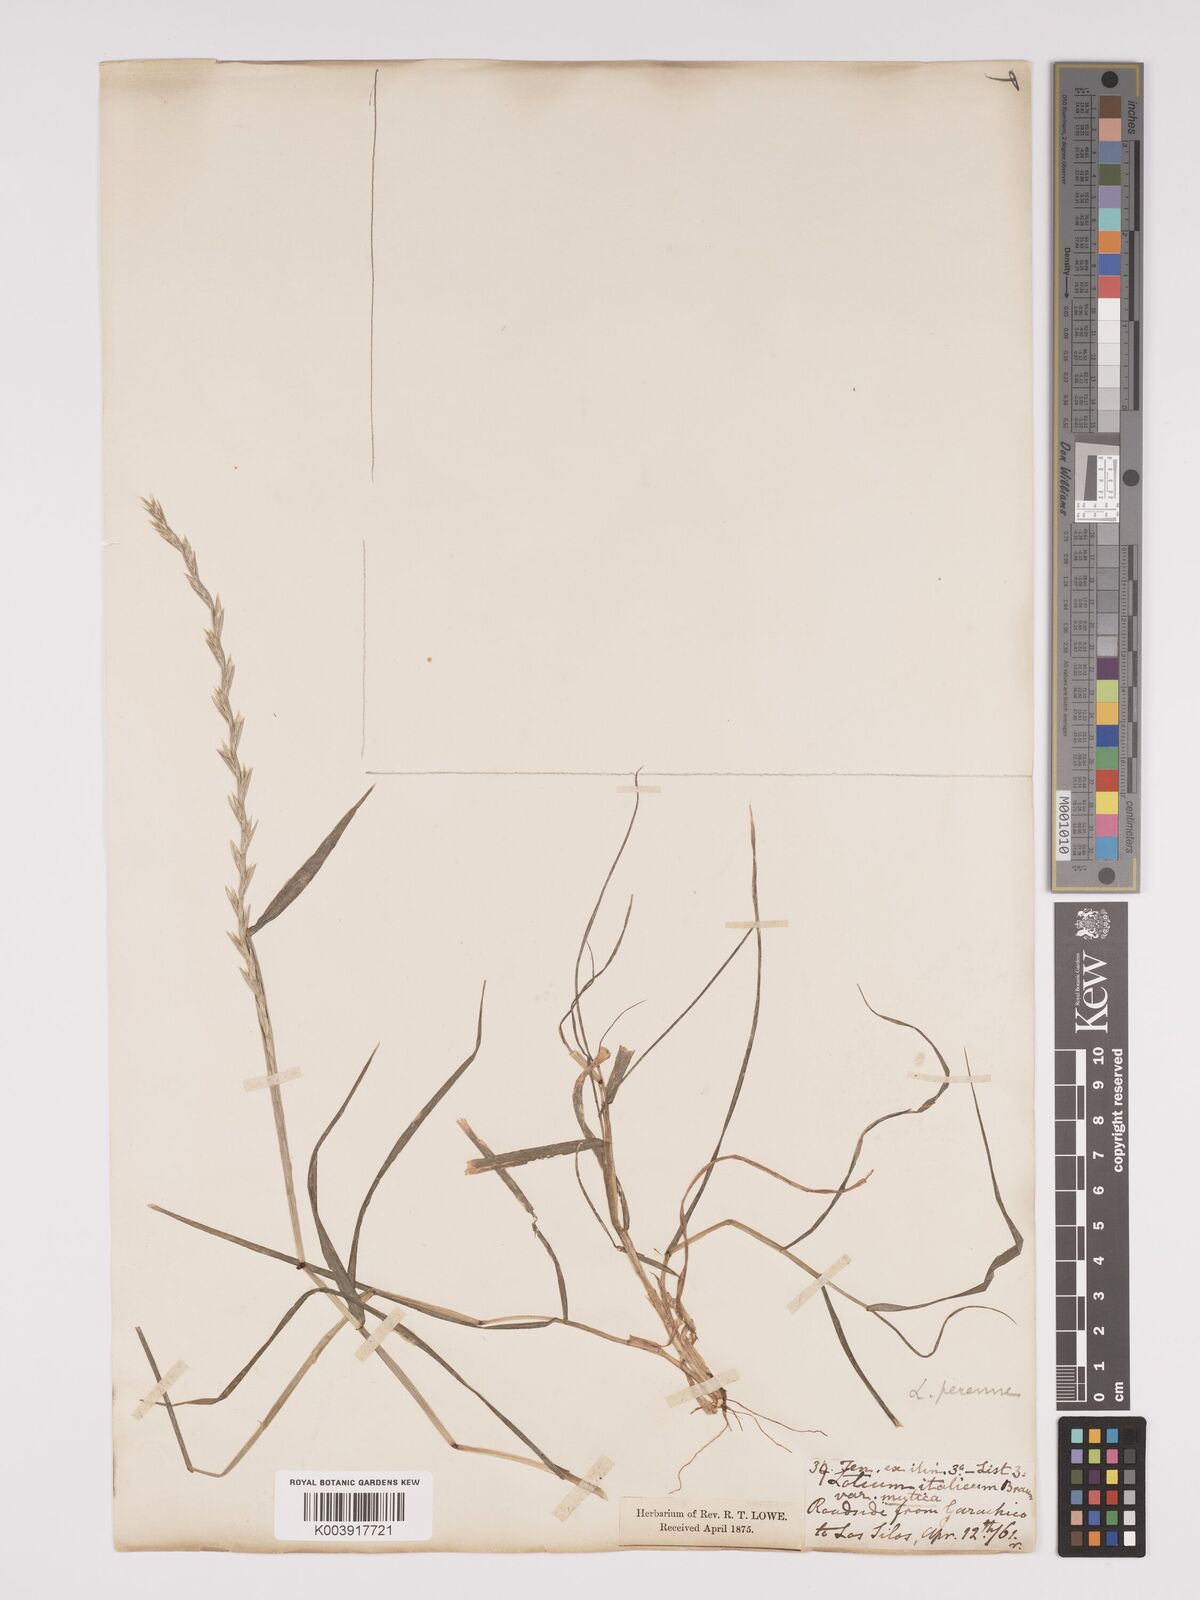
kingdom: Plantae
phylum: Tracheophyta
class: Liliopsida
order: Poales
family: Poaceae
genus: Lolium
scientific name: Lolium perenne
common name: Perennial ryegrass
